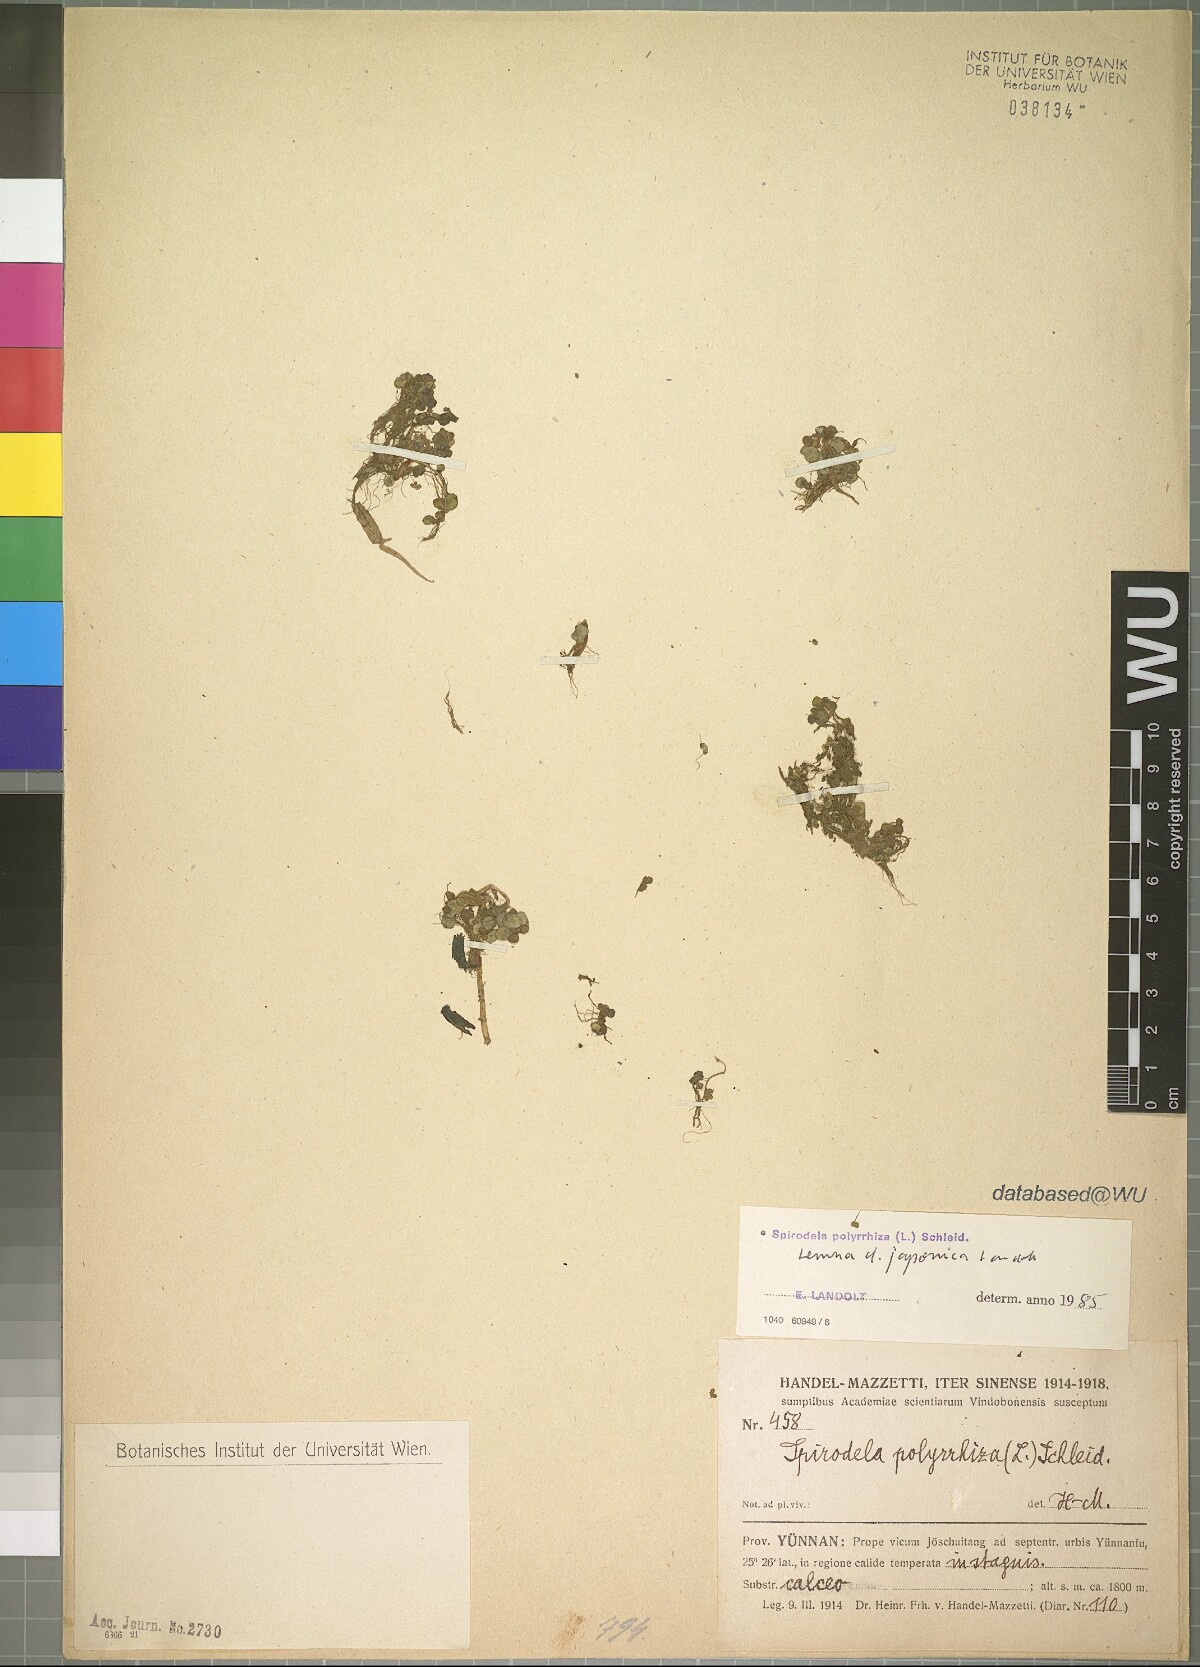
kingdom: Plantae
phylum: Tracheophyta
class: Liliopsida
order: Alismatales
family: Araceae
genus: Lemna
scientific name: Lemna japonica
